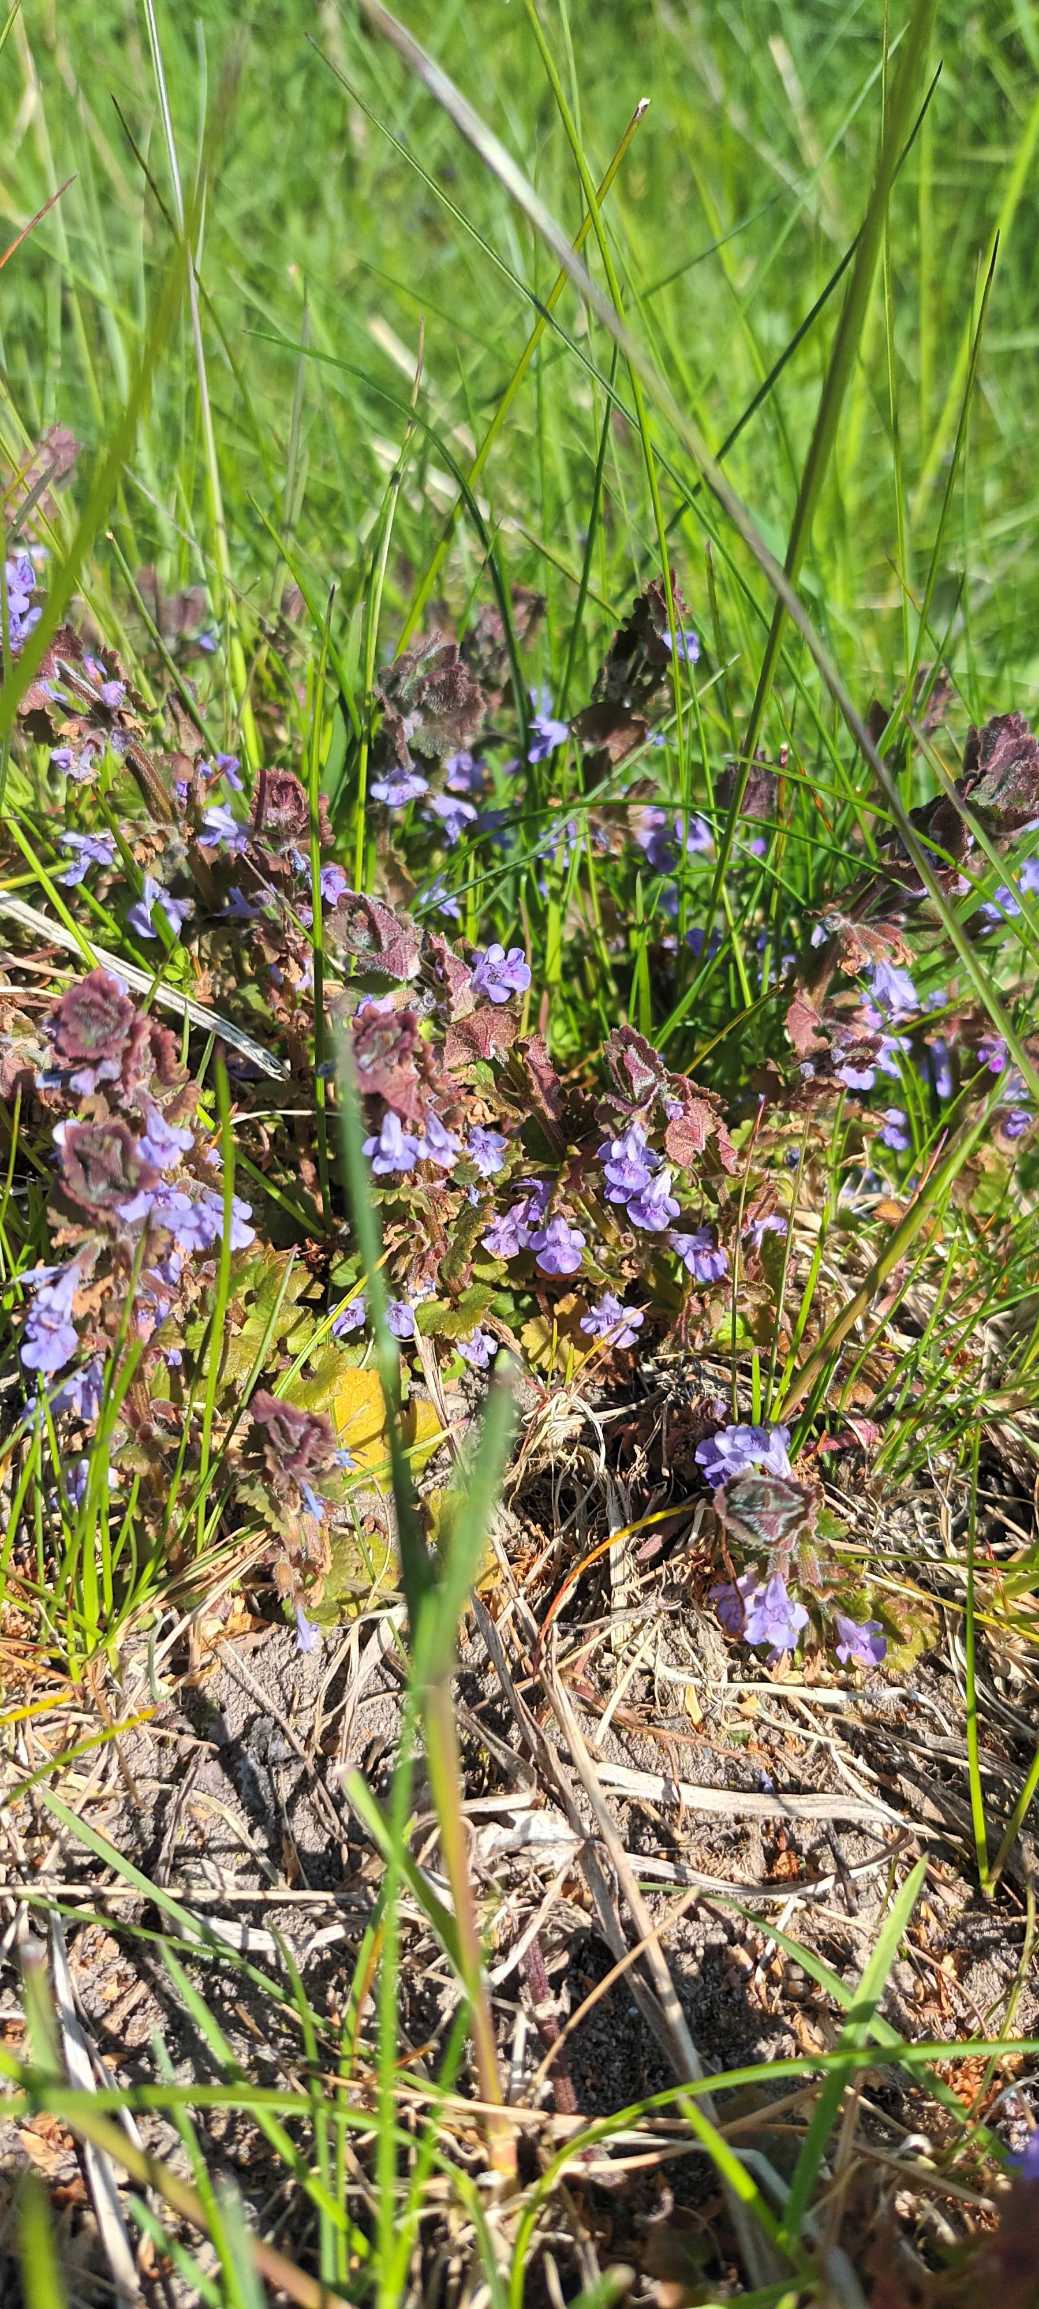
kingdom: Plantae
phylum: Tracheophyta
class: Magnoliopsida
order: Lamiales
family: Lamiaceae
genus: Glechoma
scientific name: Glechoma hederacea
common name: Korsknap
